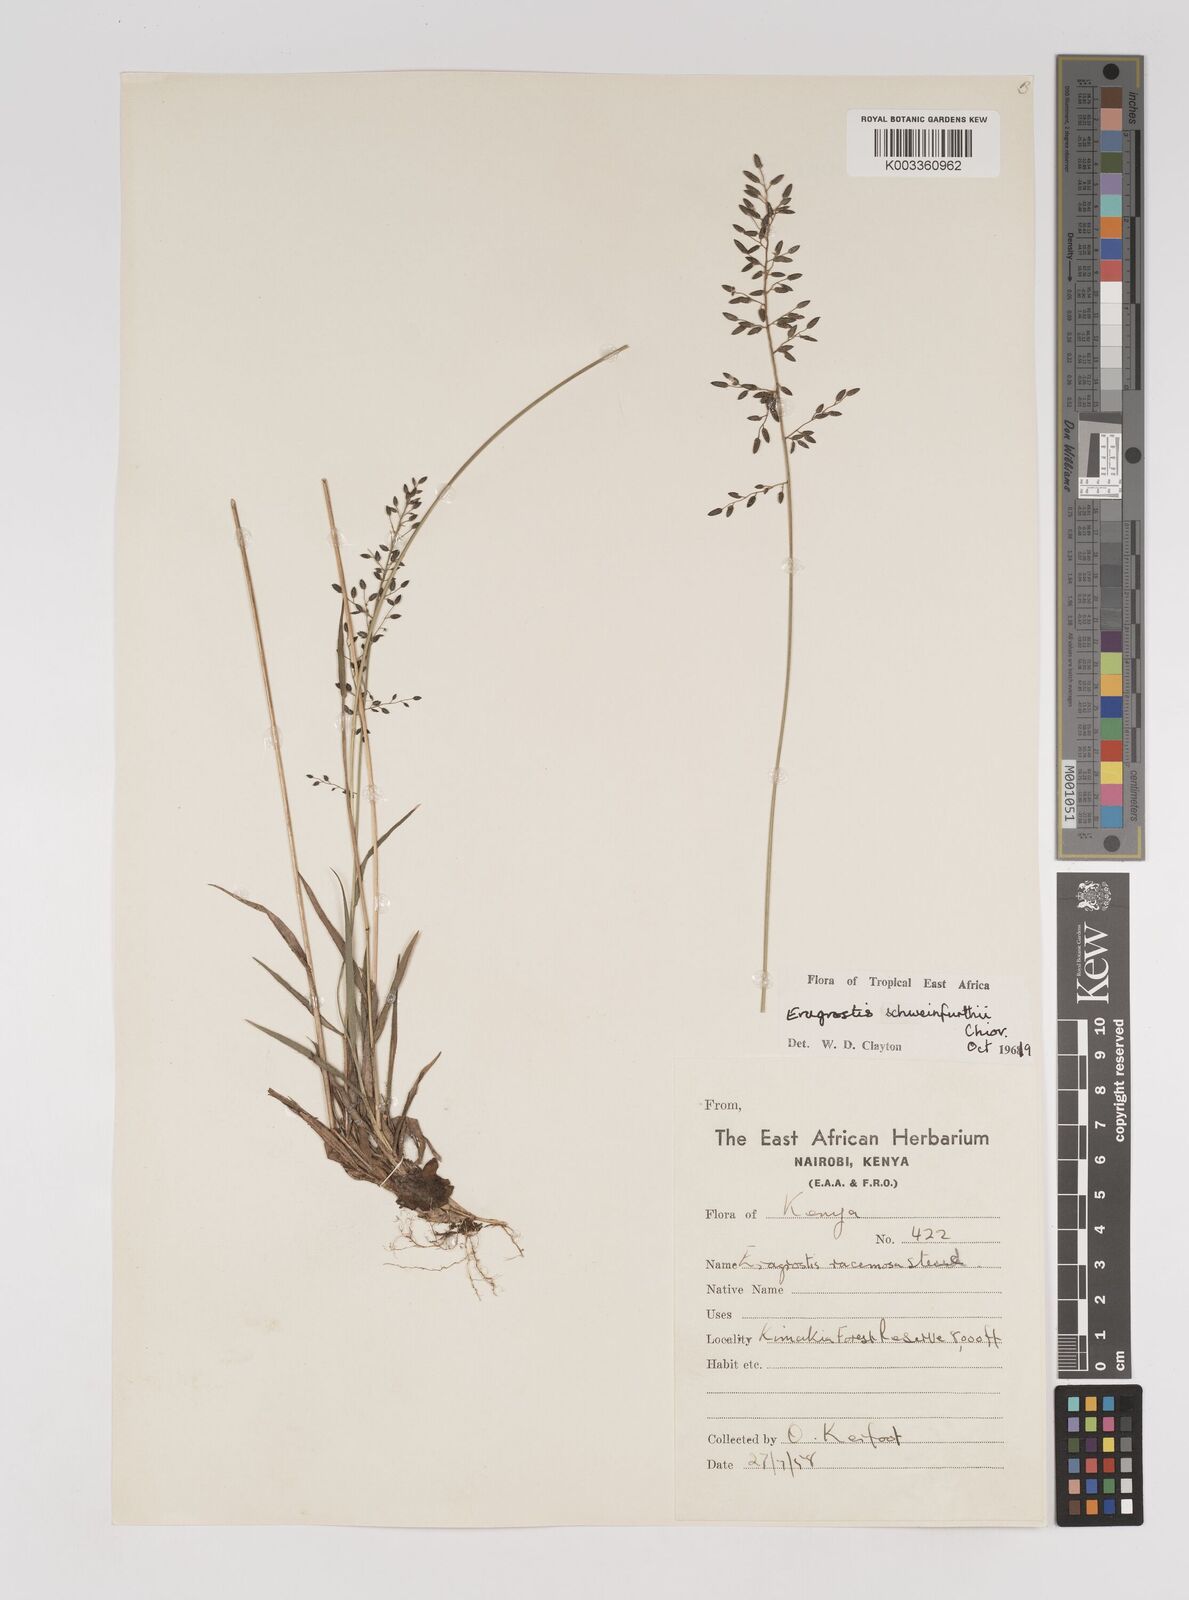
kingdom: Plantae
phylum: Tracheophyta
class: Liliopsida
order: Poales
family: Poaceae
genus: Eragrostis
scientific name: Eragrostis schweinfurthii
